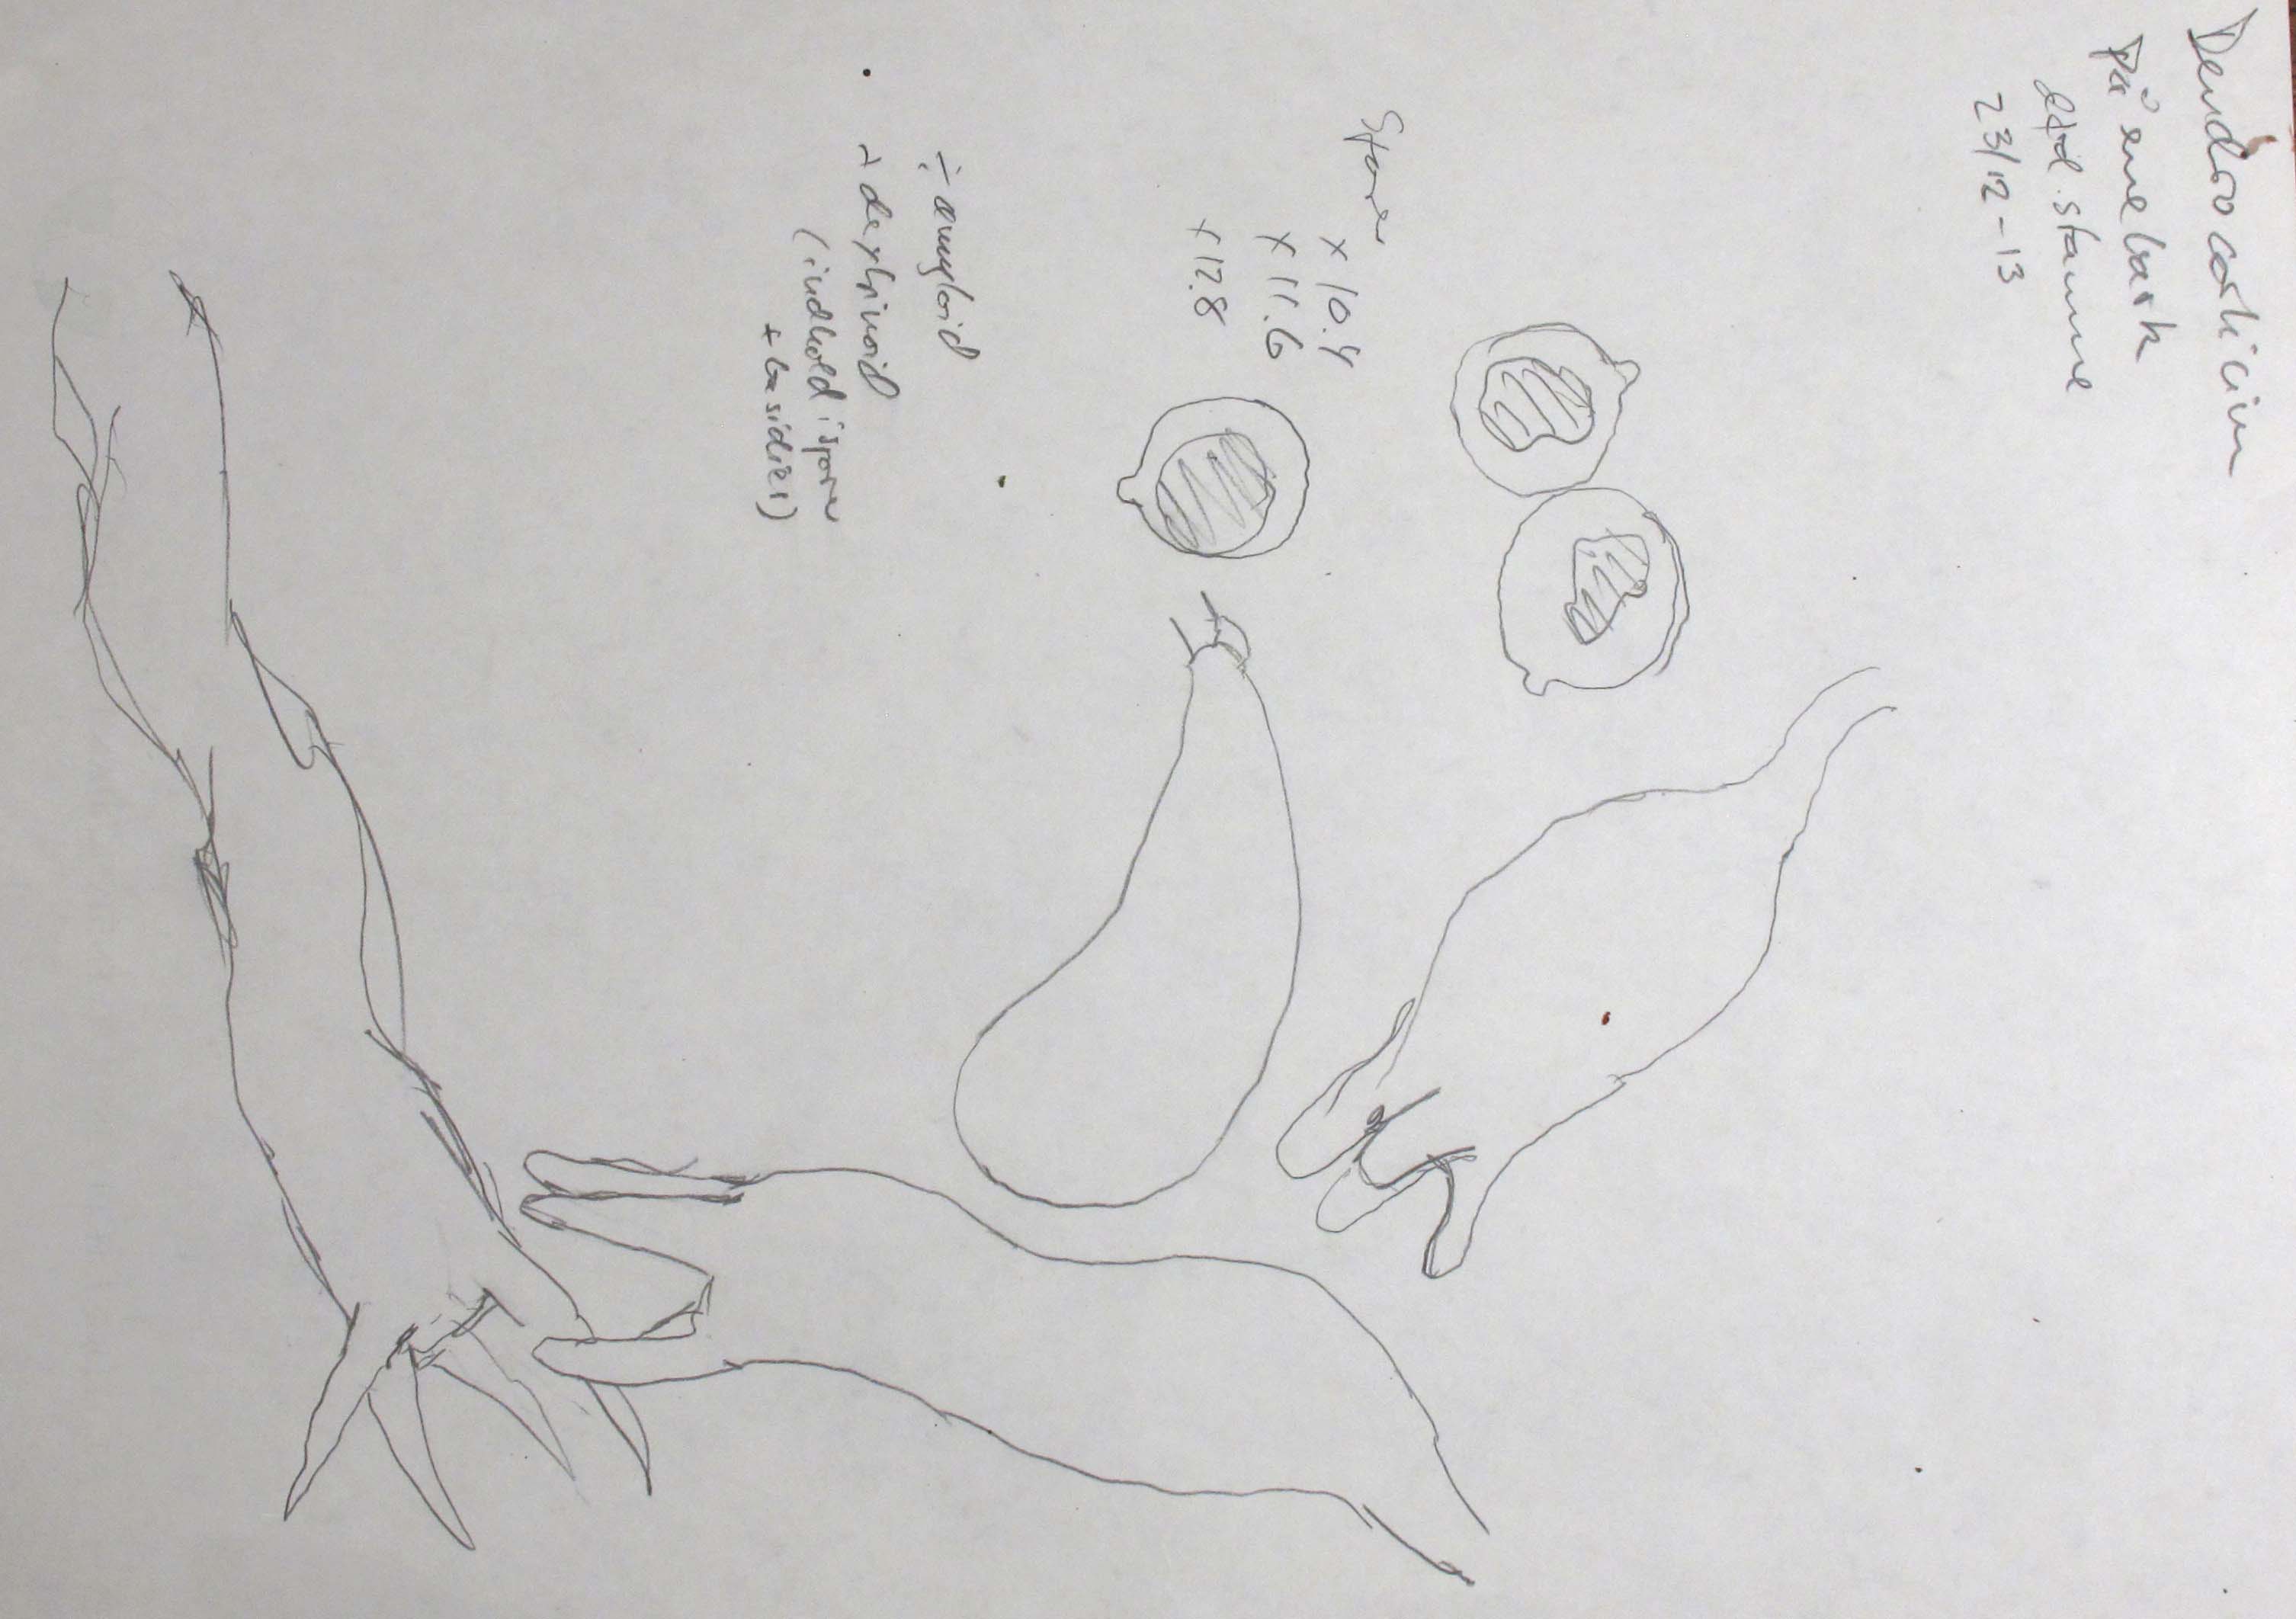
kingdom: Fungi
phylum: Basidiomycota
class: Agaricomycetes
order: Hymenochaetales
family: Rickenellaceae
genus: Globulicium
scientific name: Globulicium hiemale
